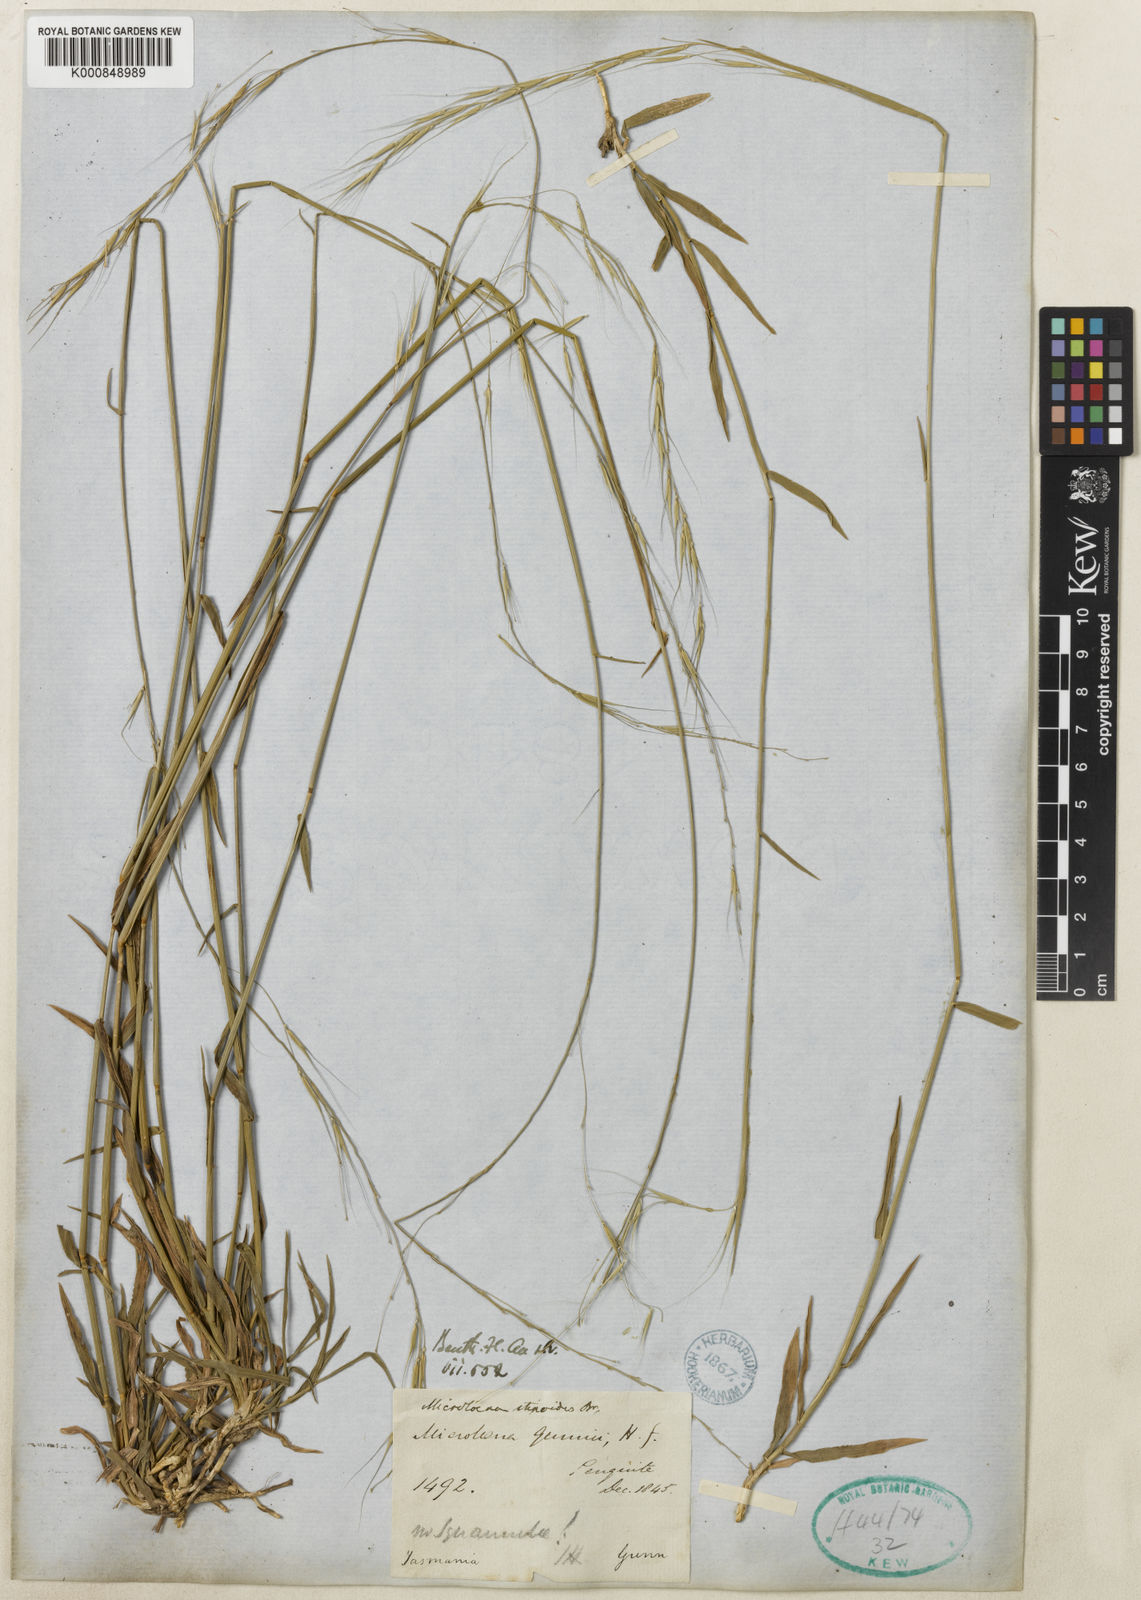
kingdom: Plantae
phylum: Tracheophyta
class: Liliopsida
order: Poales
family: Poaceae
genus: Microlaena
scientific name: Microlaena stipoides
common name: Meadow ricegrass
